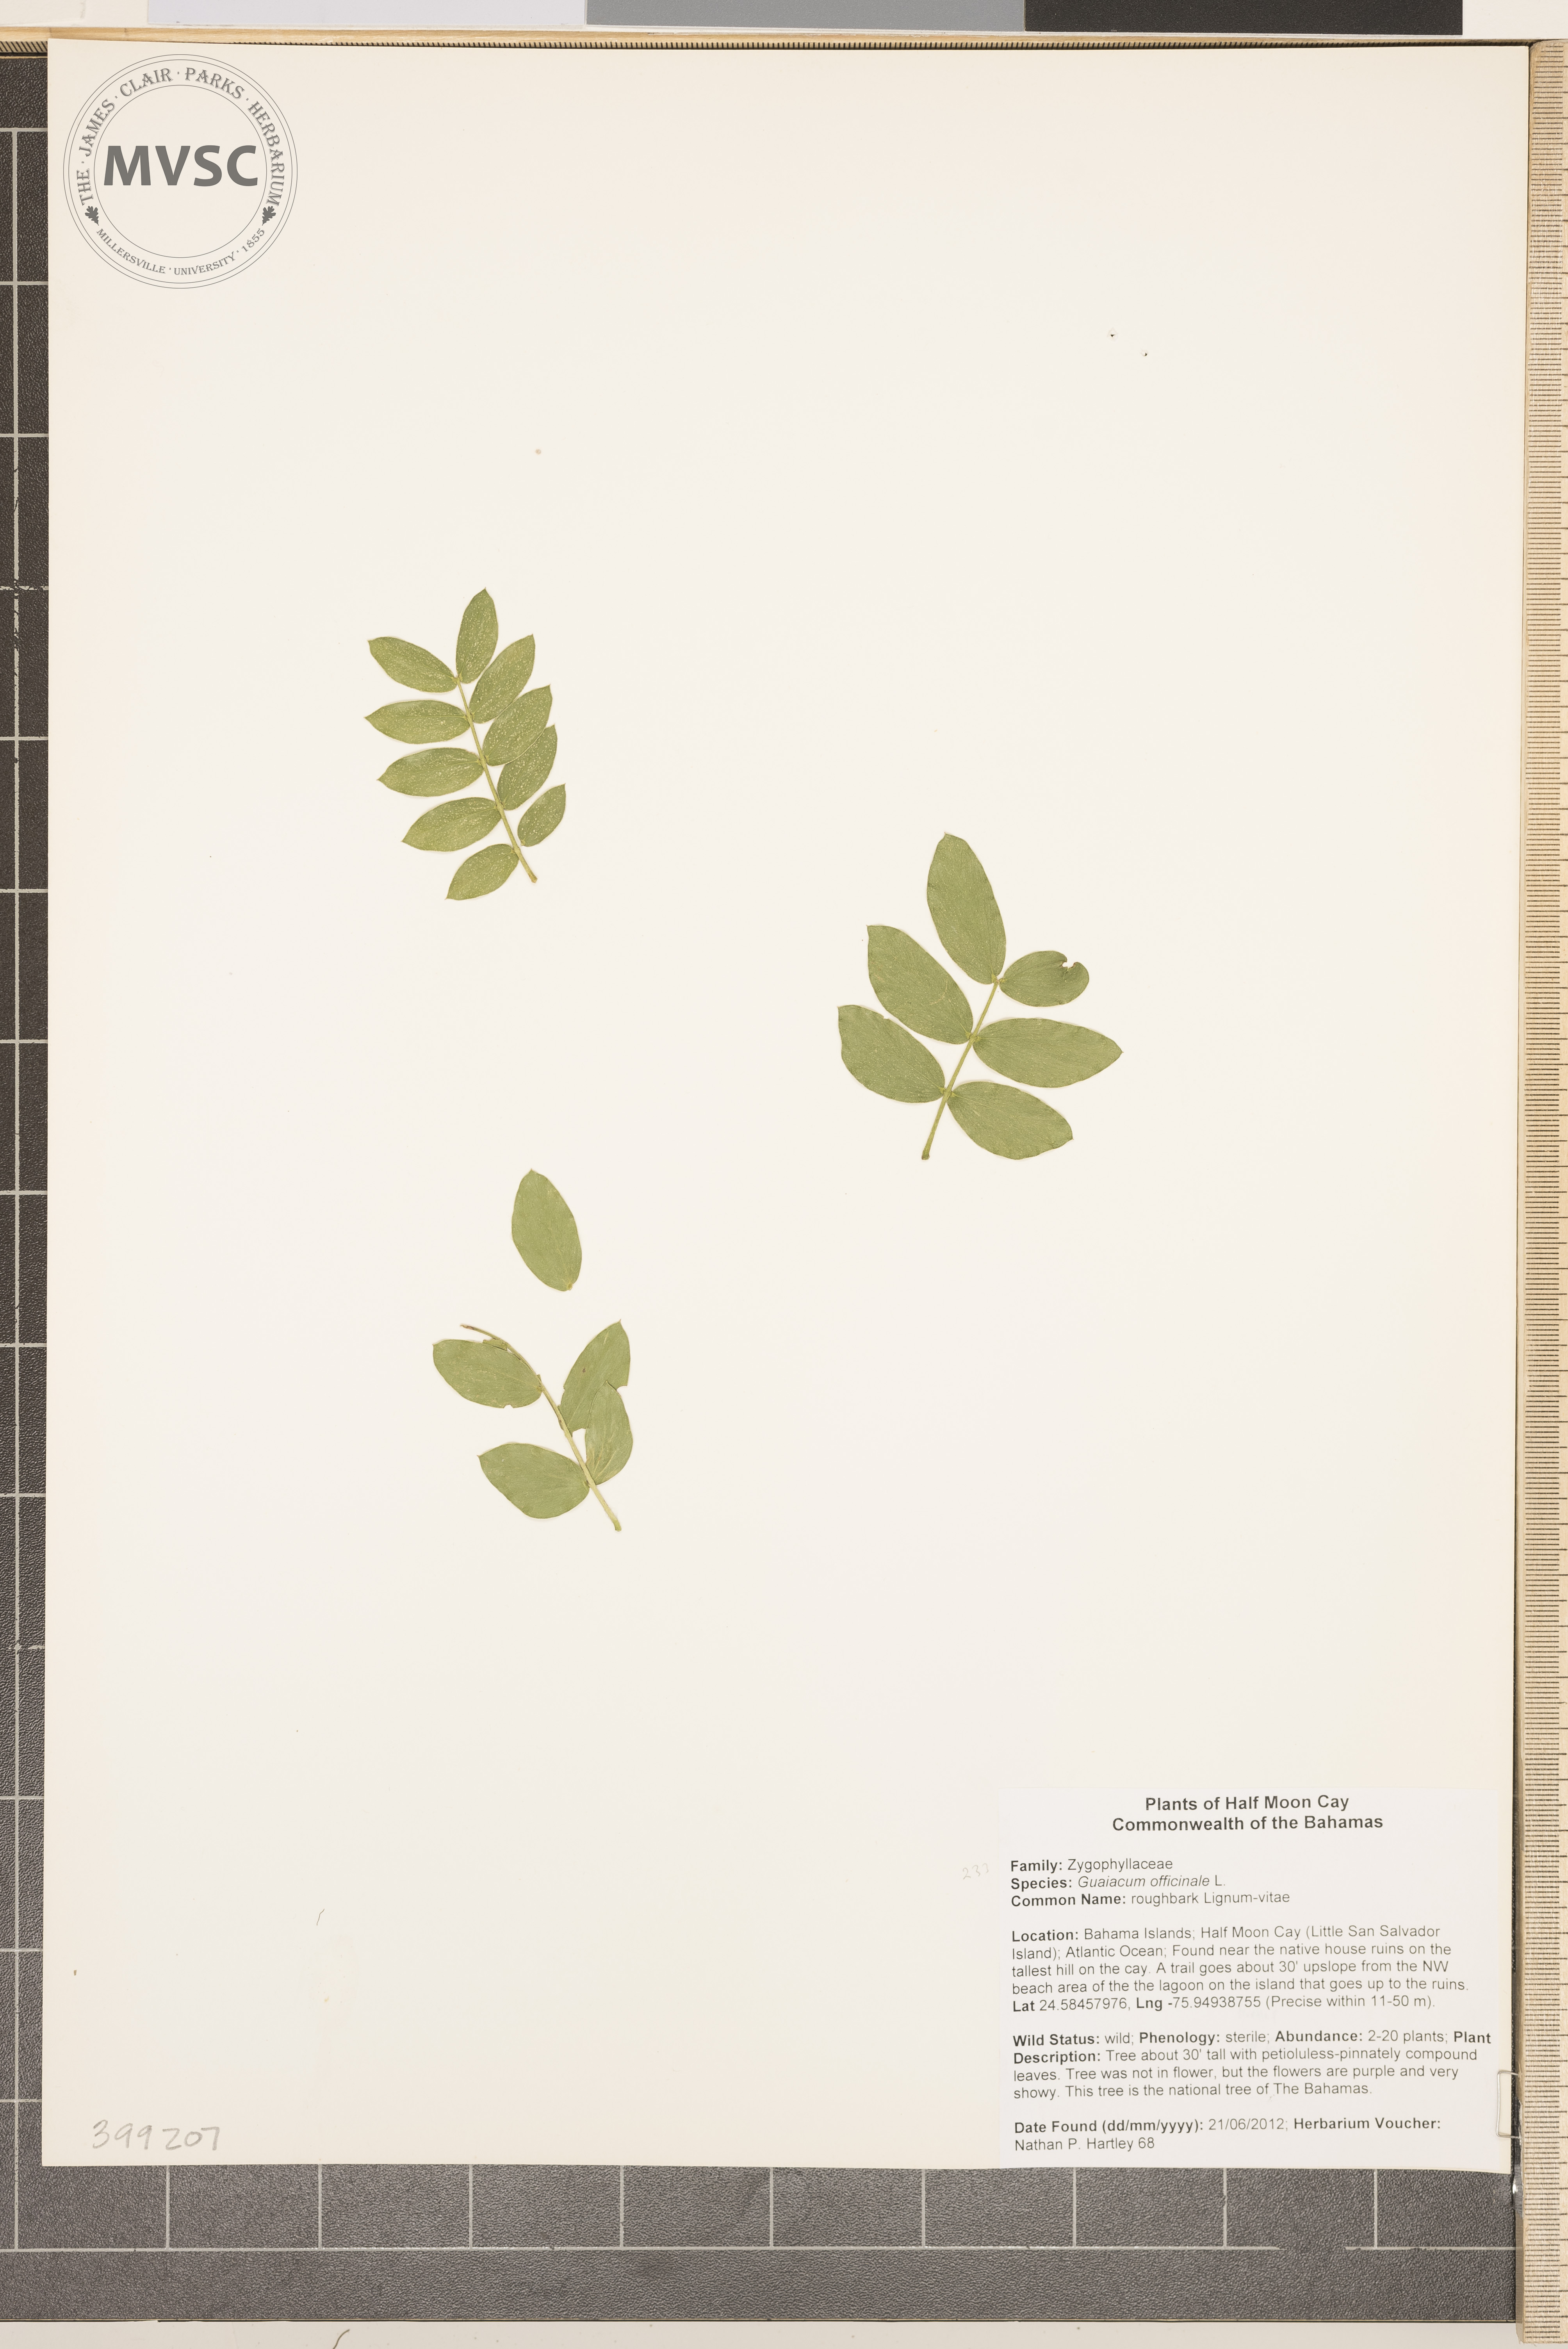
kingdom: Plantae
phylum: Tracheophyta
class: Magnoliopsida
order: Zygophyllales
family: Zygophyllaceae
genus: Guaiacum
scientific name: Guaiacum officinale
